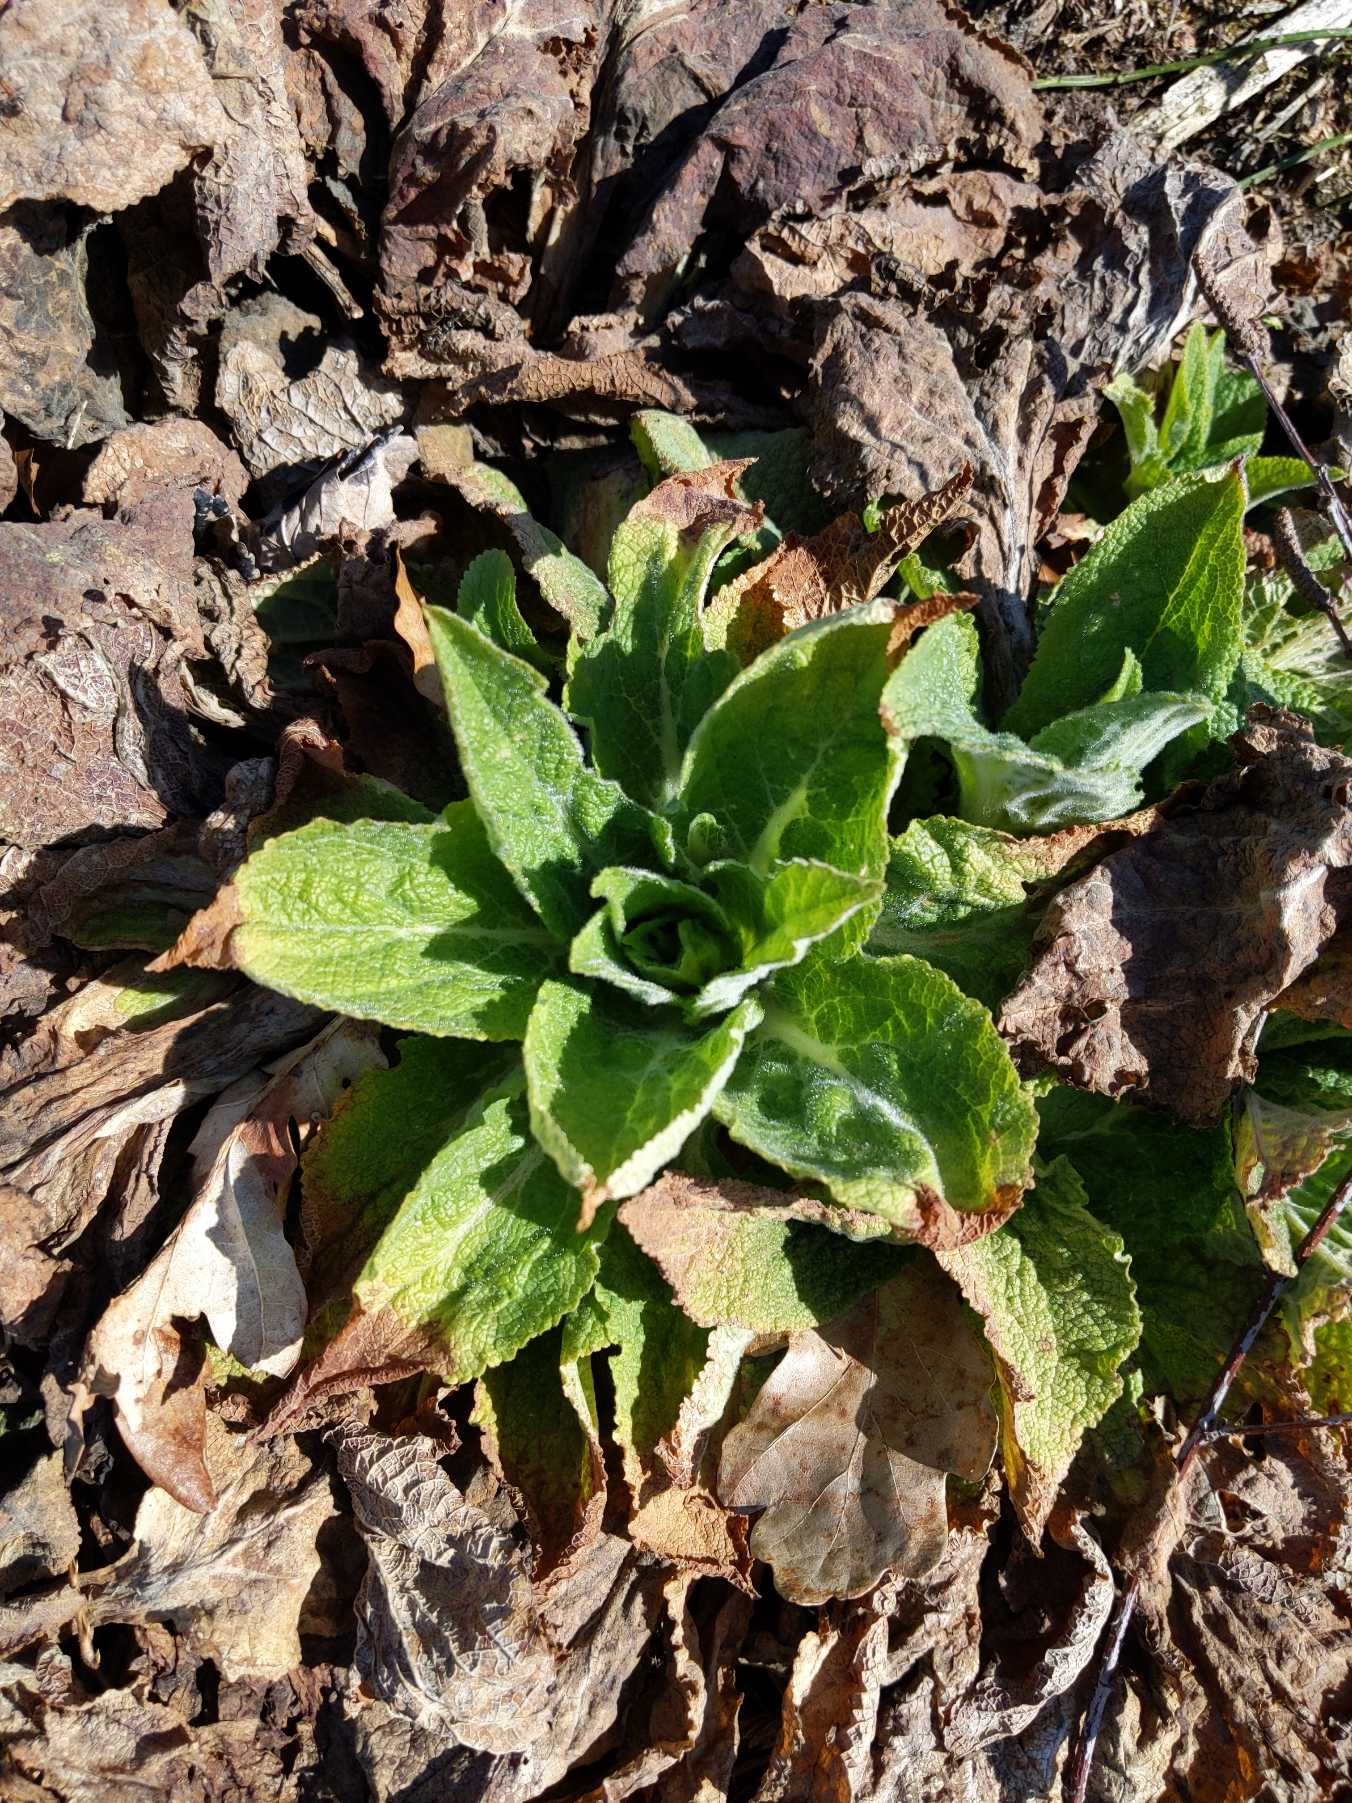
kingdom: Plantae
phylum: Tracheophyta
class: Magnoliopsida
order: Lamiales
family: Plantaginaceae
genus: Digitalis
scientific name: Digitalis purpurea
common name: Almindelig fingerbøl
